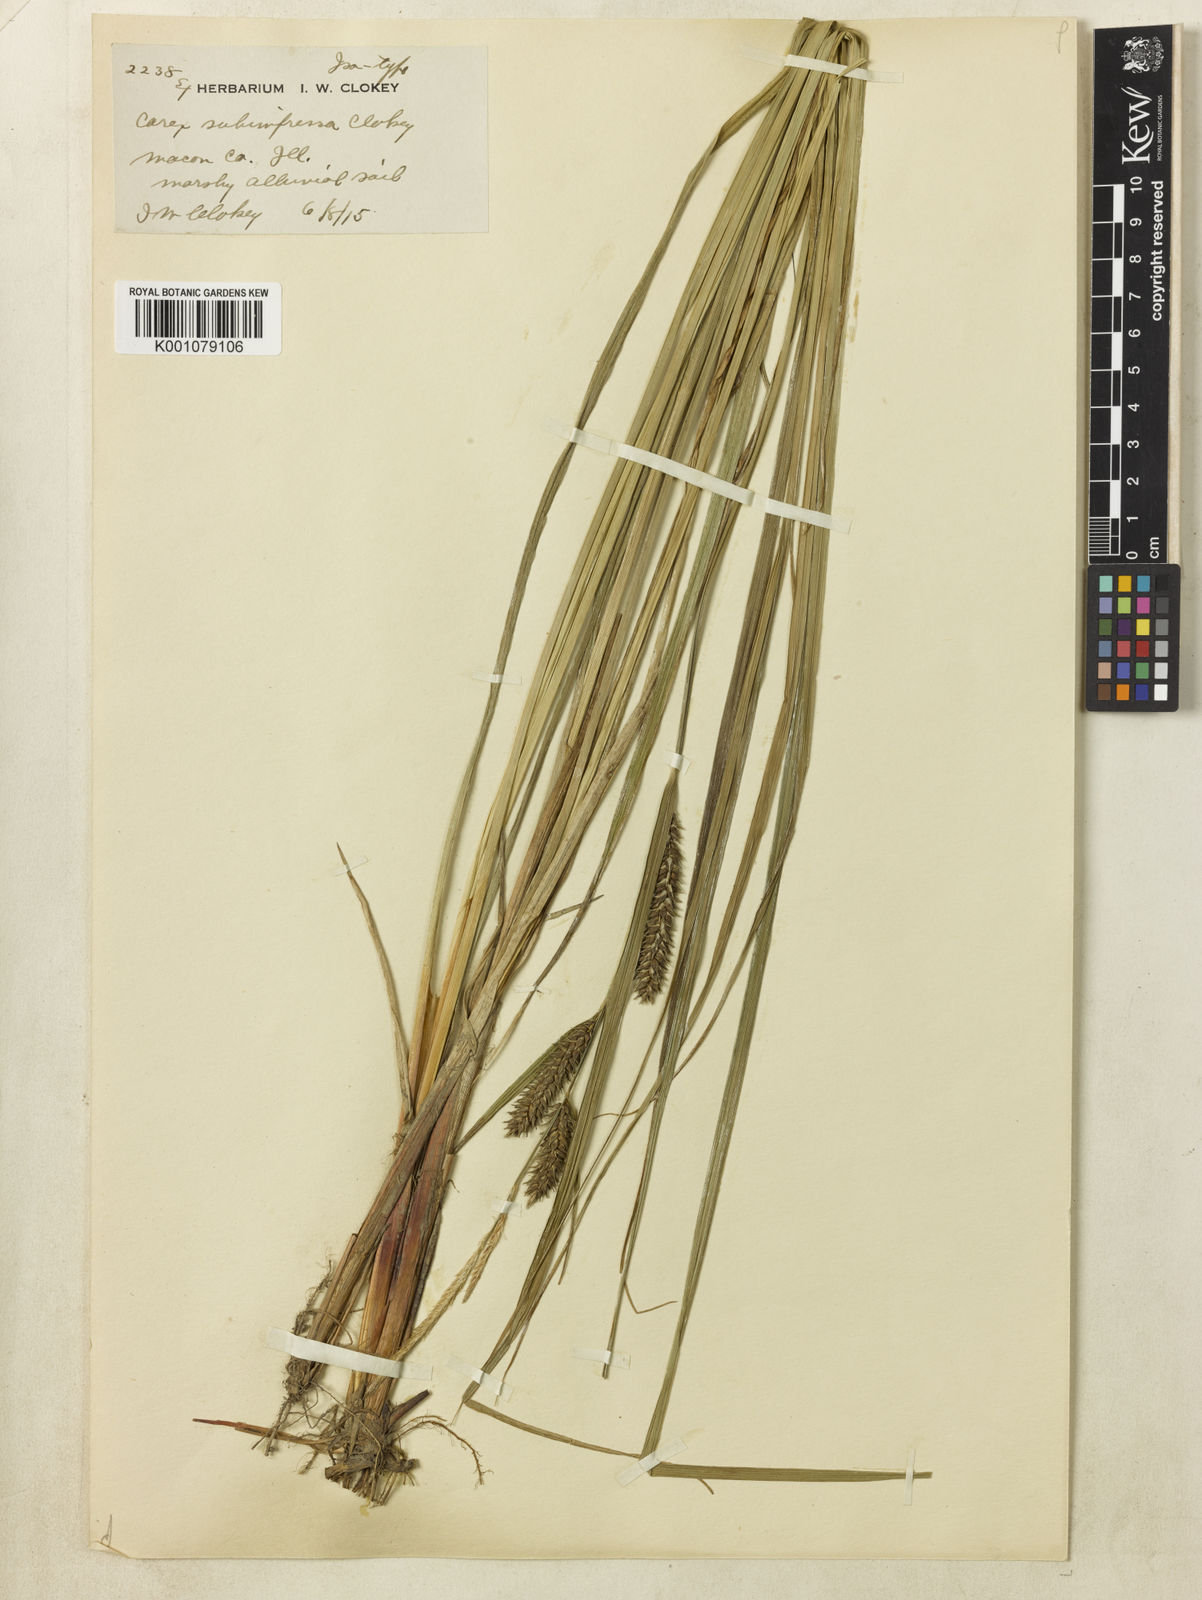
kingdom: Plantae
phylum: Tracheophyta
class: Liliopsida
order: Poales
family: Cyperaceae
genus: Carex
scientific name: Carex subimpressa
